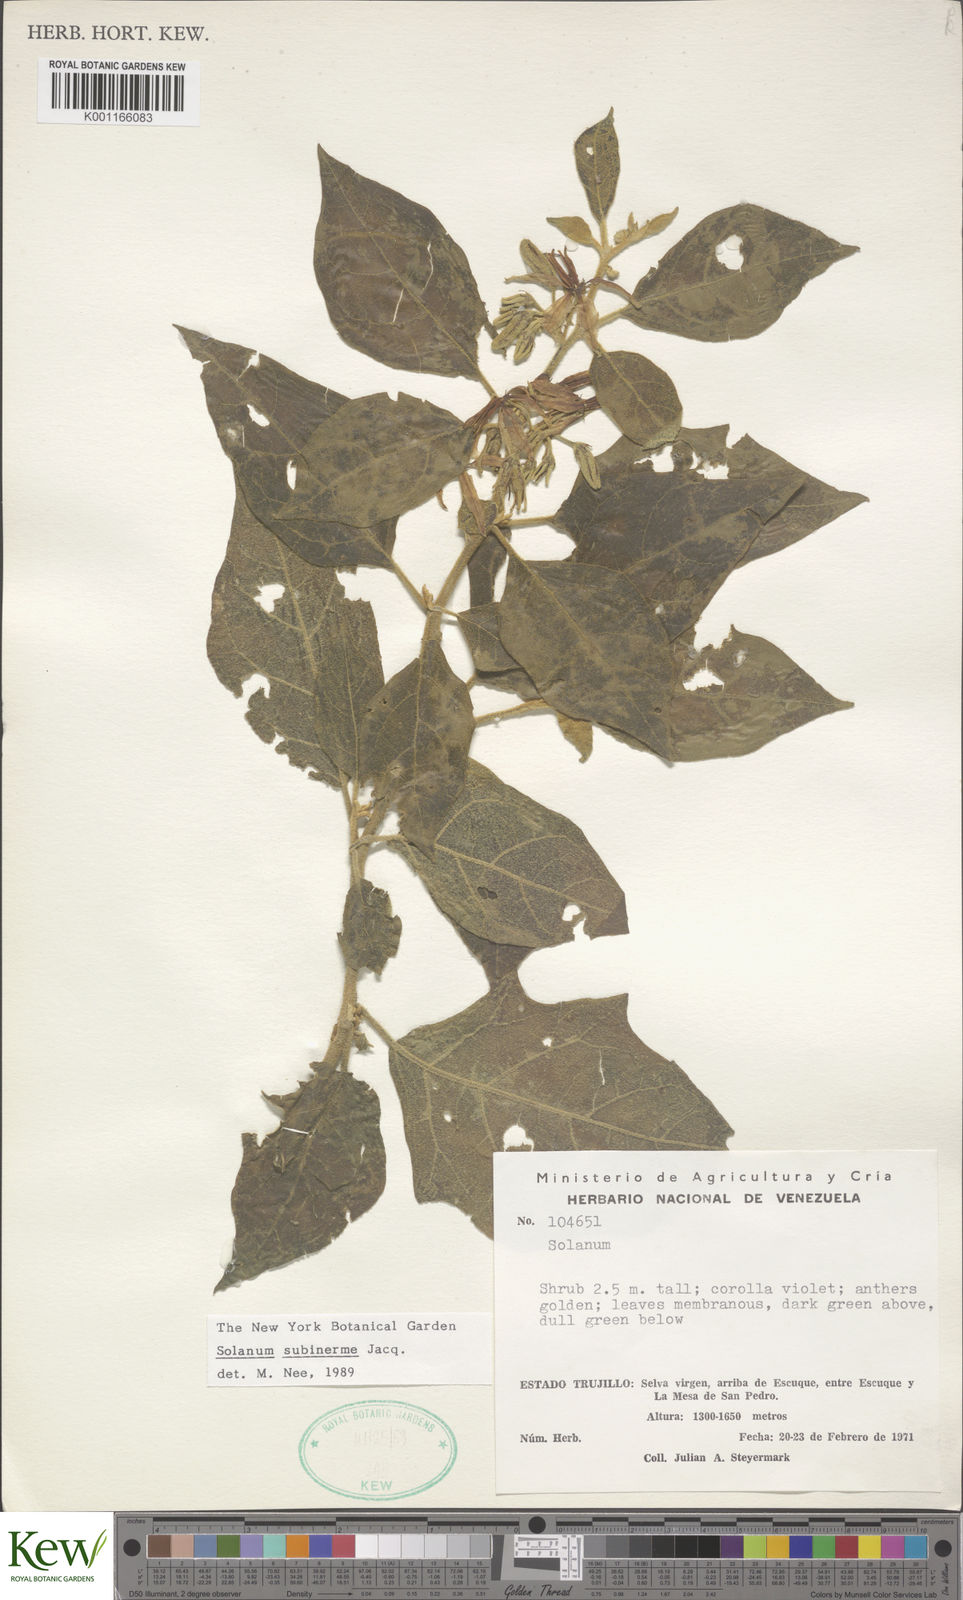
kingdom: Plantae
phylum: Tracheophyta
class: Magnoliopsida
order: Solanales
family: Solanaceae
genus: Solanum
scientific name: Solanum subinerme
